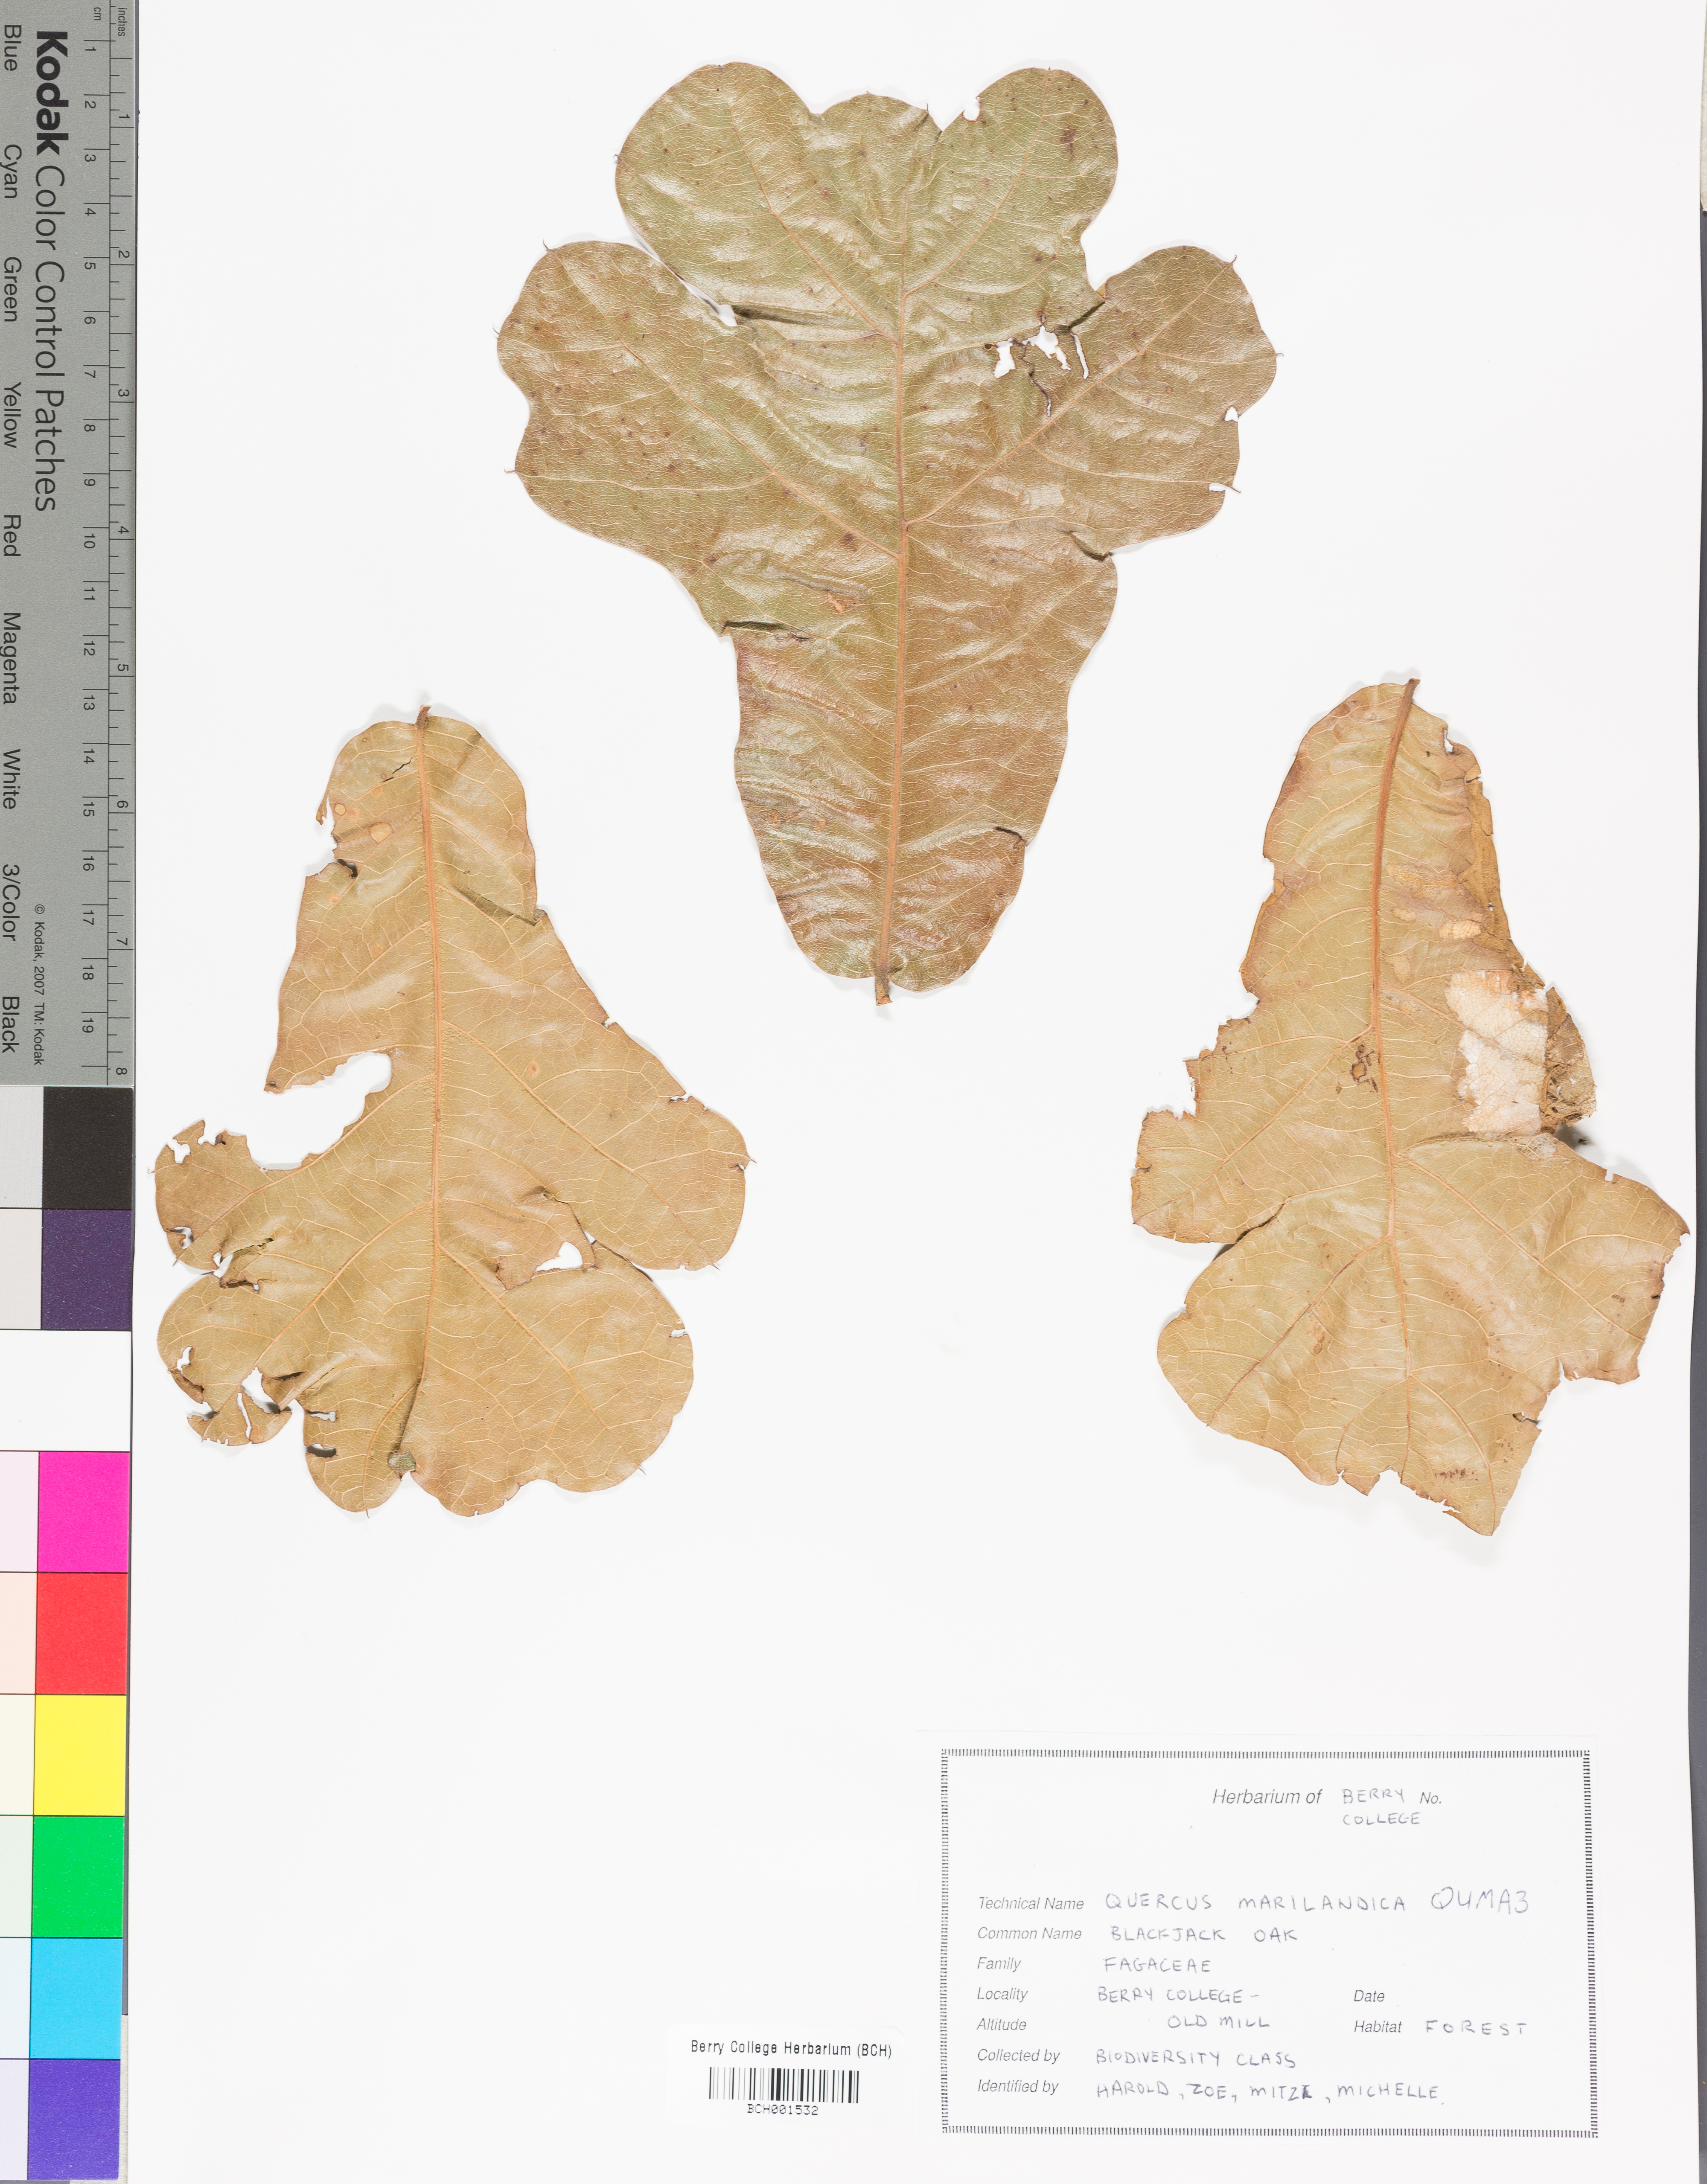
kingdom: Plantae
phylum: Tracheophyta
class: Magnoliopsida
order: Fagales
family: Fagaceae
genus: Quercus
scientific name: Quercus marilandica
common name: Blackjack oak
